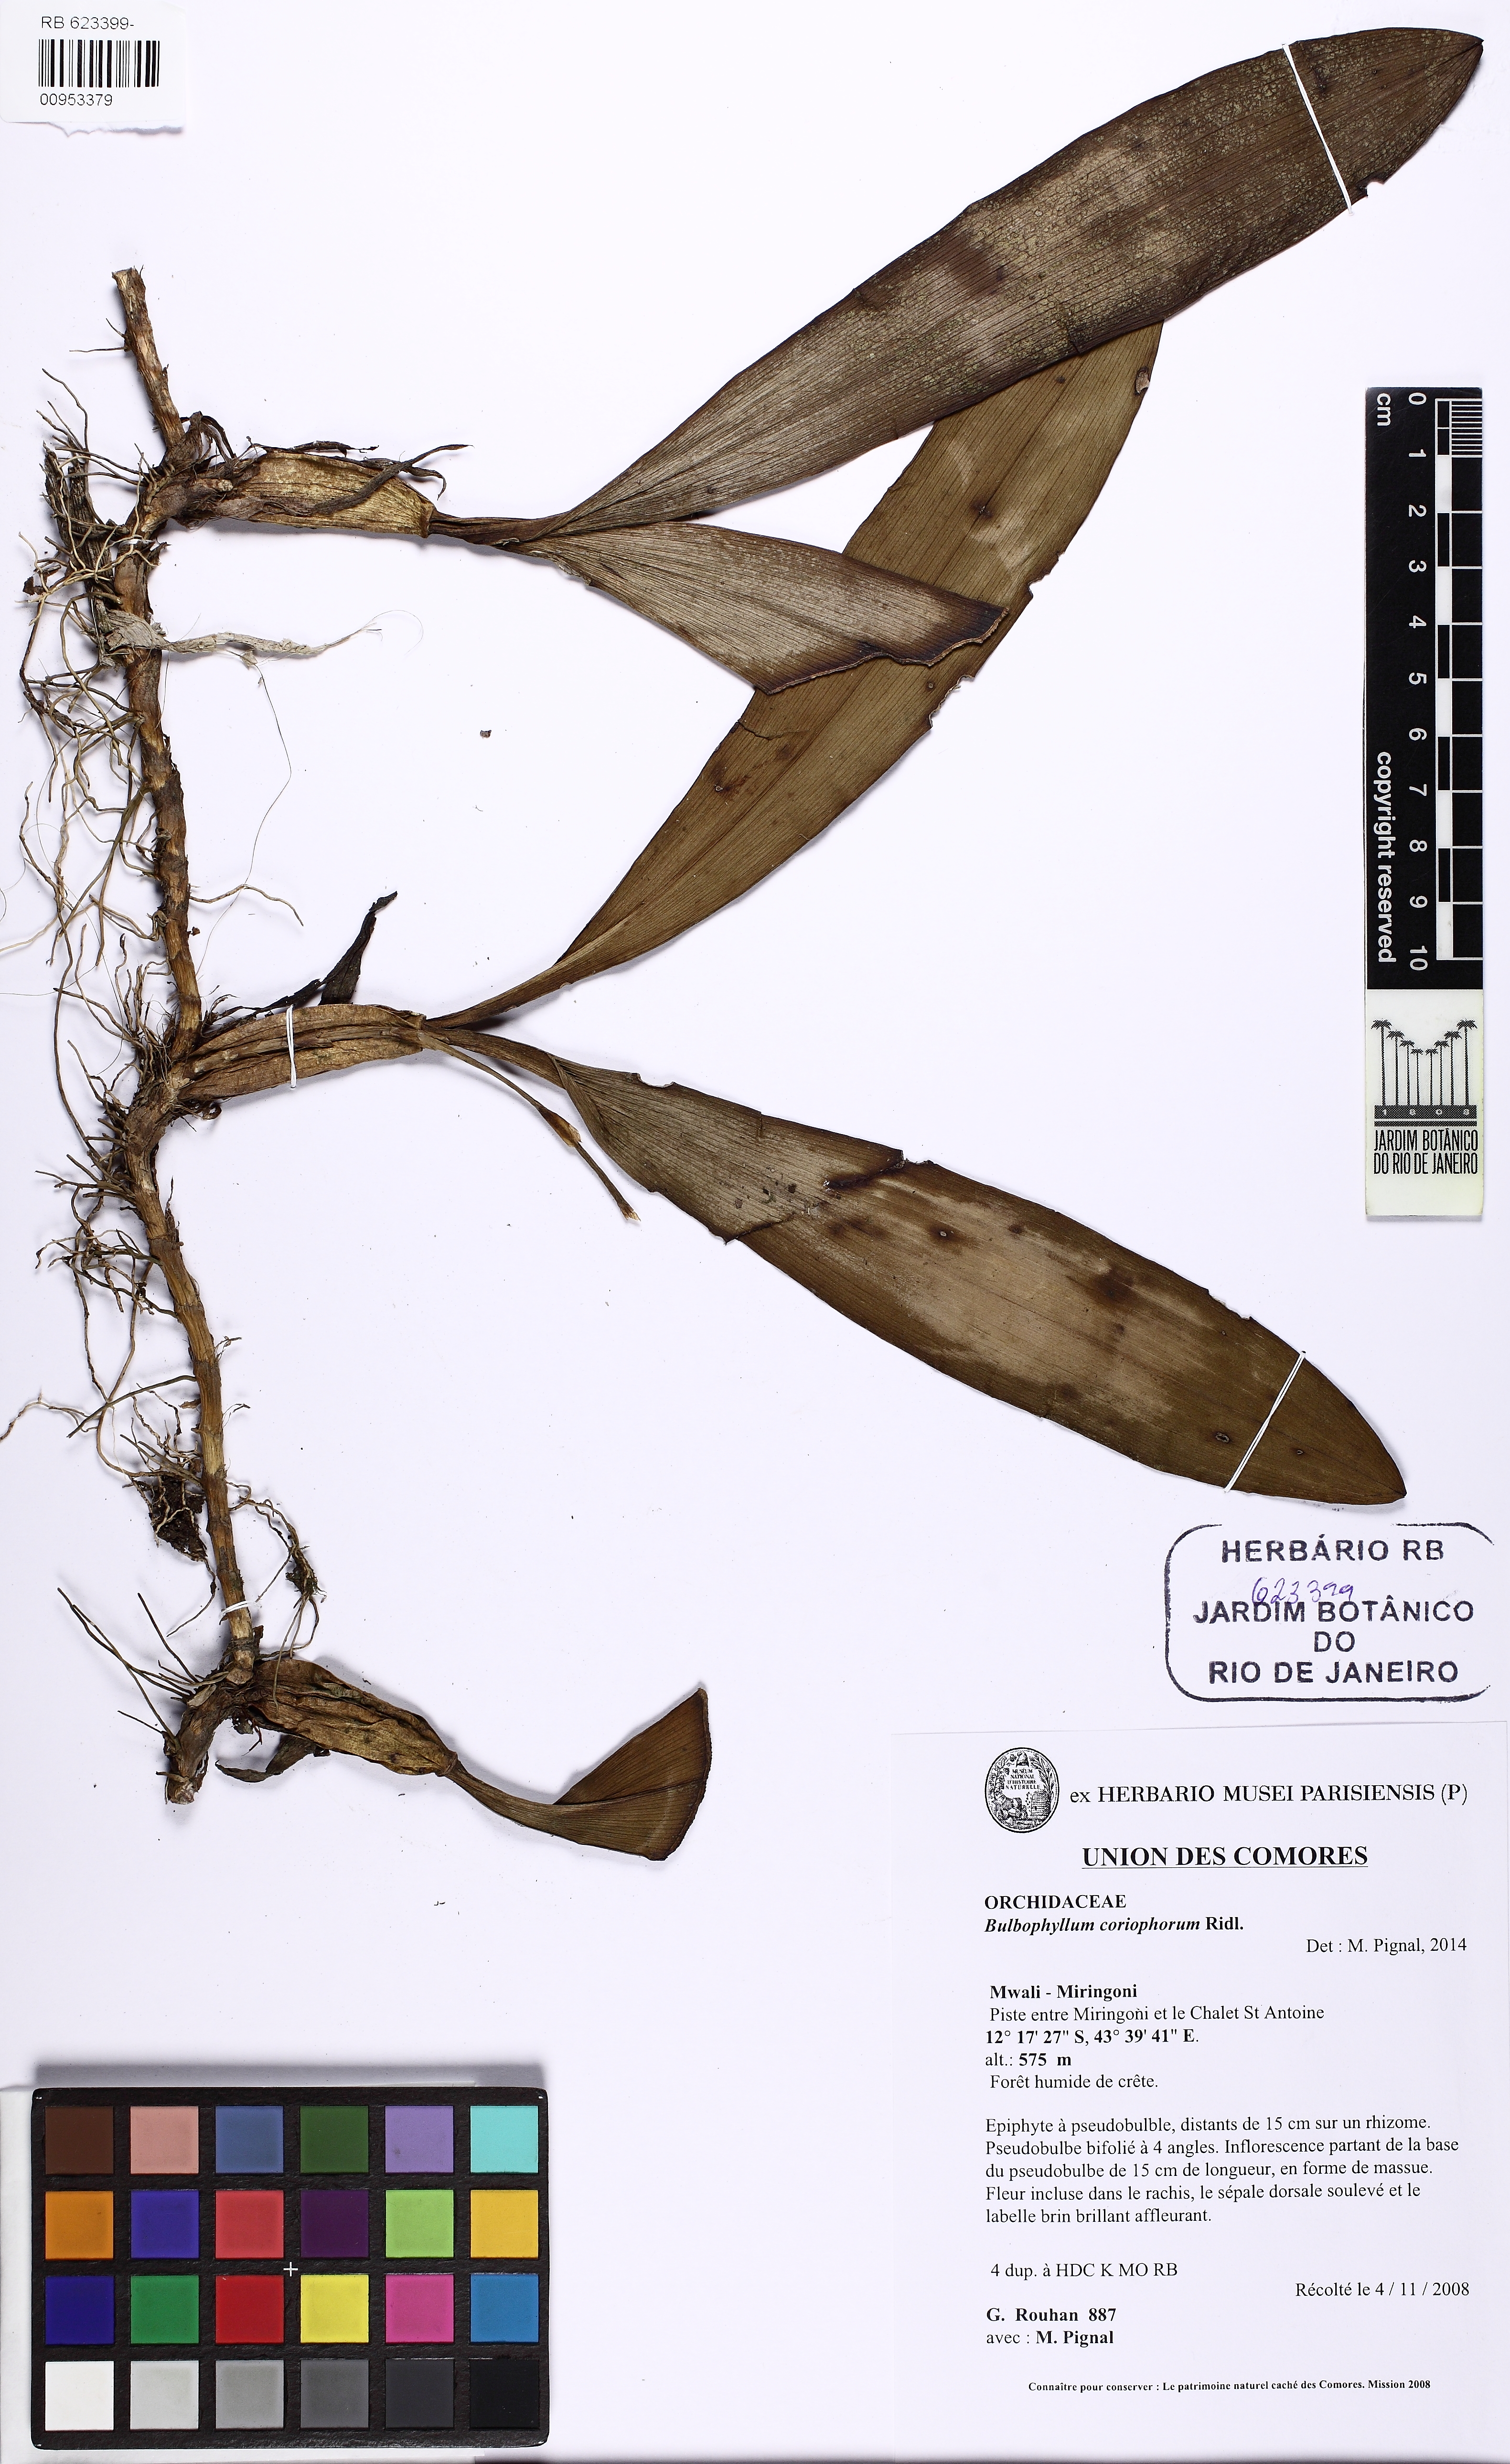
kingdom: Plantae
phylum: Tracheophyta
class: Liliopsida
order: Asparagales
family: Orchidaceae
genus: Bulbophyllum
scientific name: Bulbophyllum coriophorum
